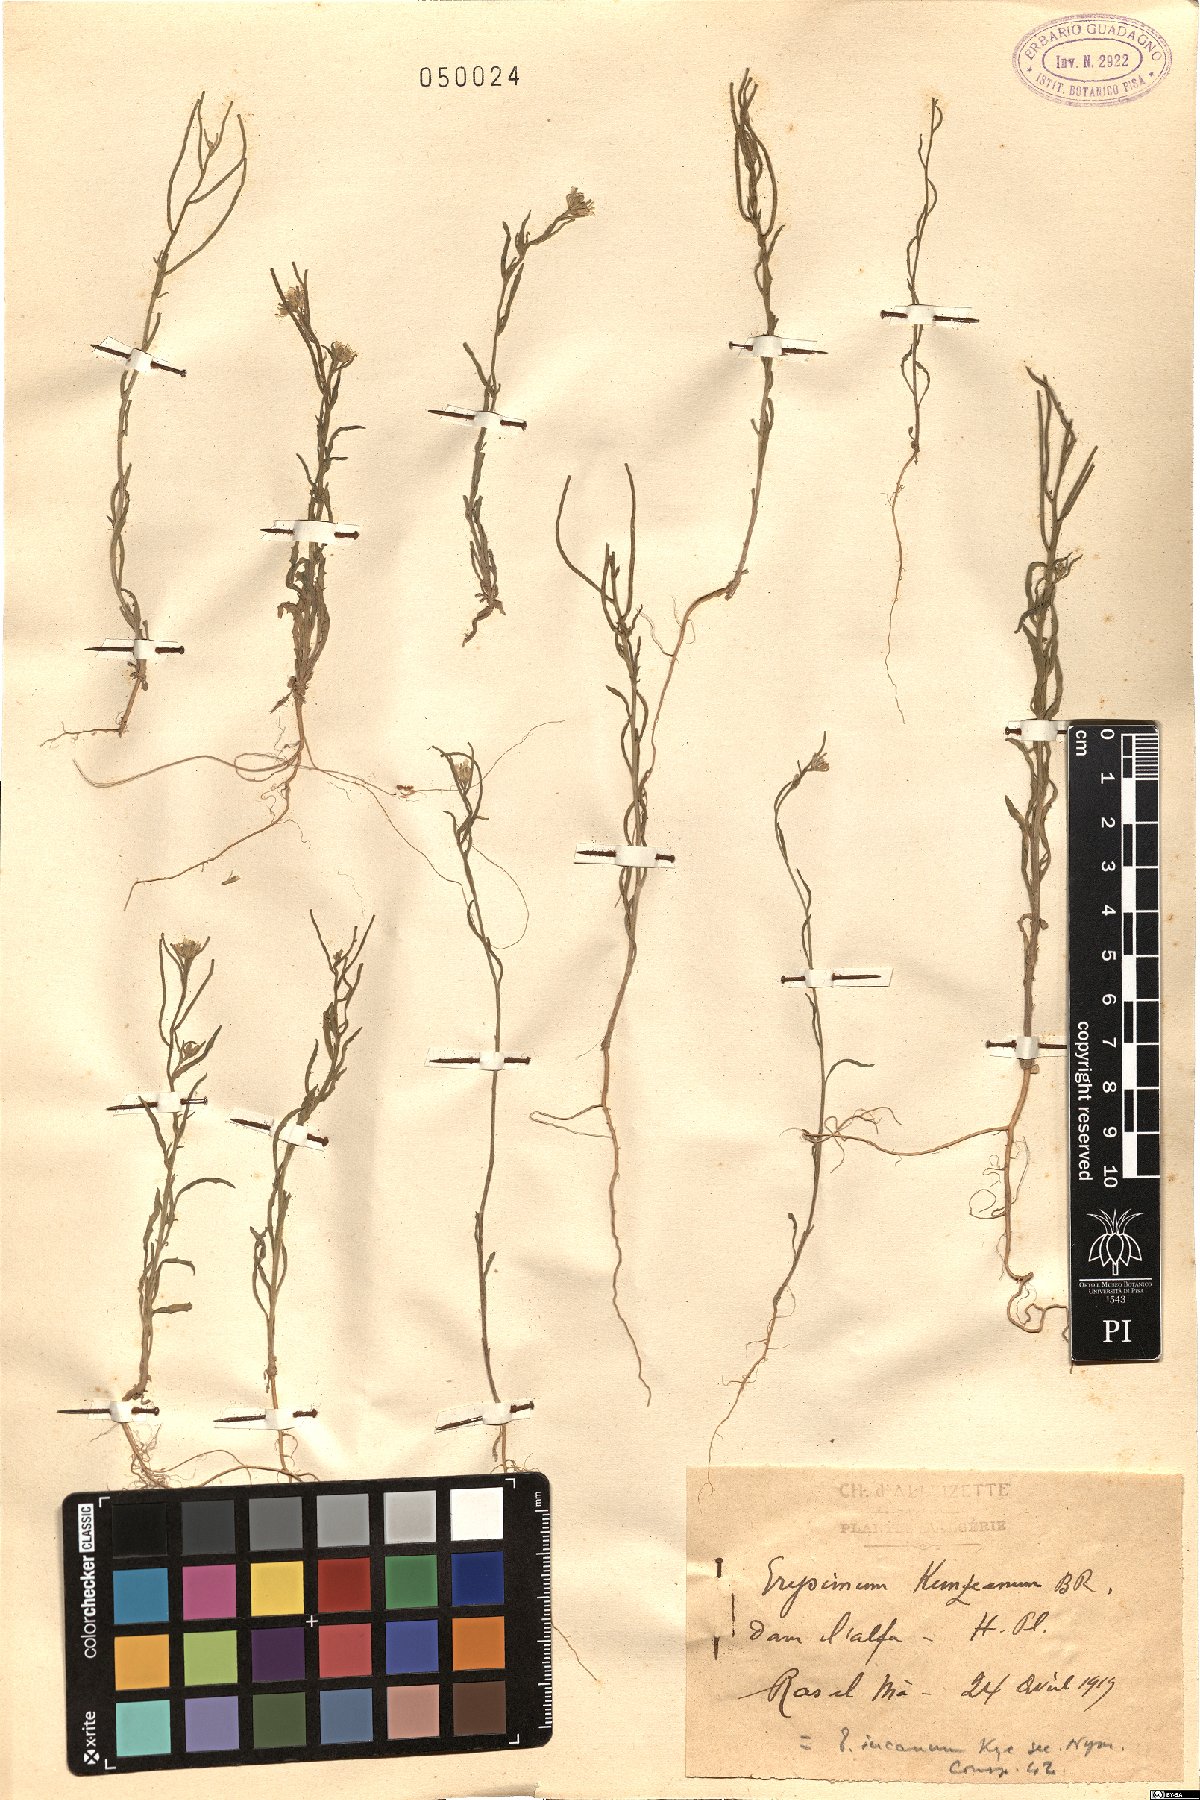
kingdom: Plantae
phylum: Tracheophyta
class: Magnoliopsida
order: Brassicales
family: Brassicaceae
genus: Erysimum
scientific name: Erysimum incanum
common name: Hoary treacle mustard
